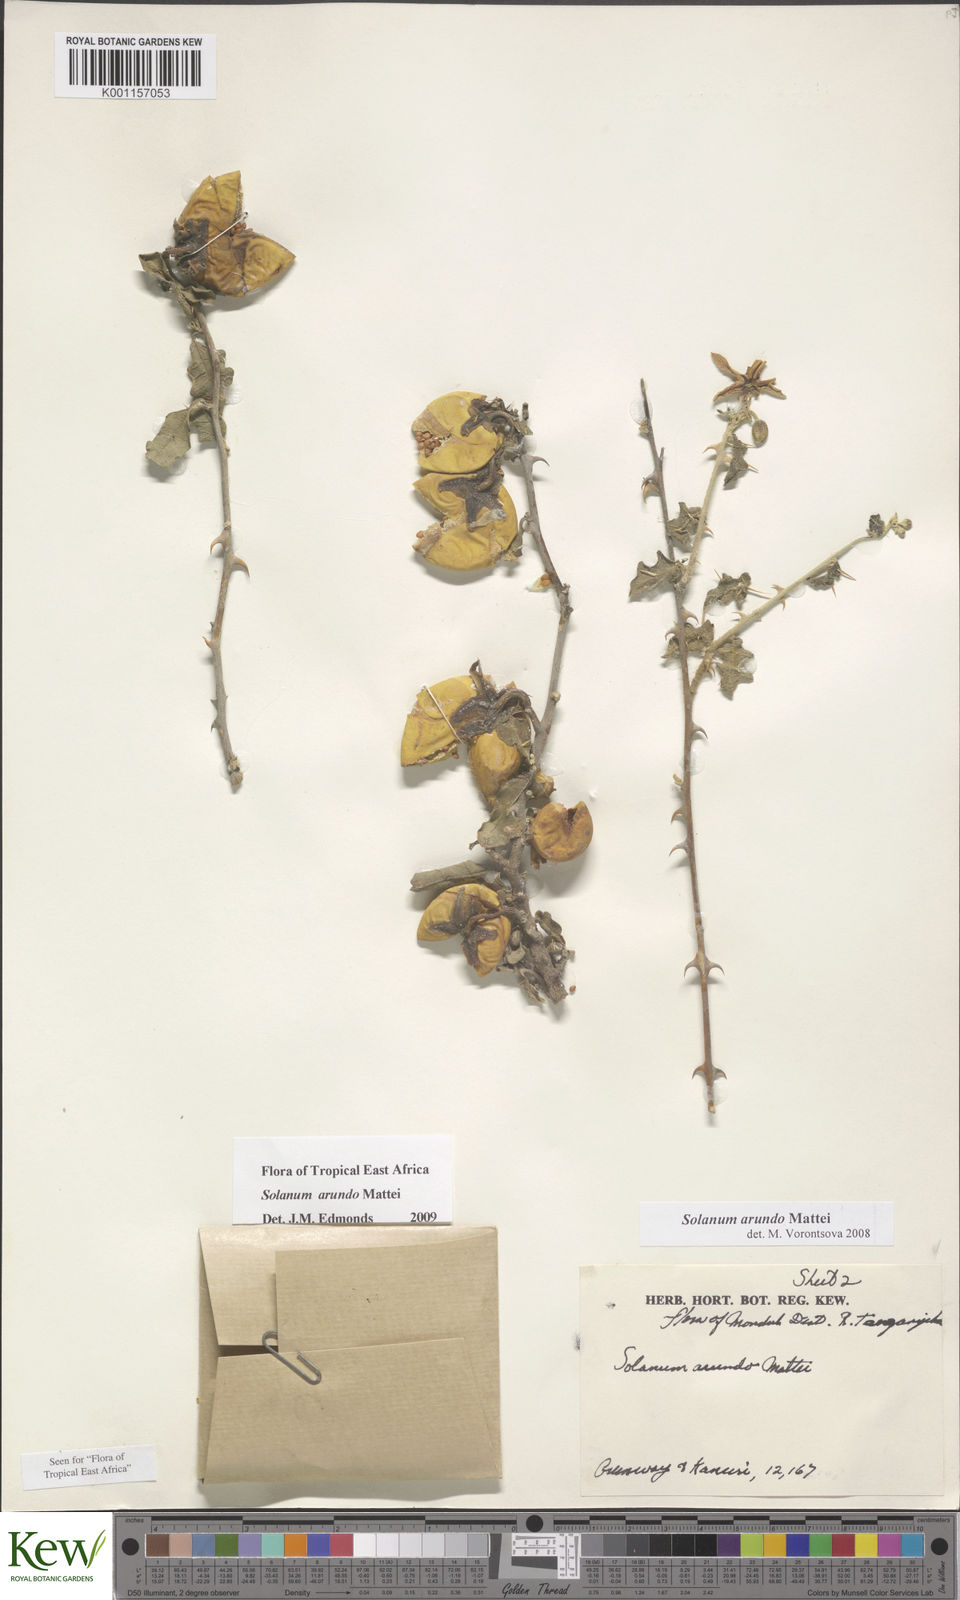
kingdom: Plantae
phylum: Tracheophyta
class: Magnoliopsida
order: Solanales
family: Solanaceae
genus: Solanum
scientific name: Solanum arundo
